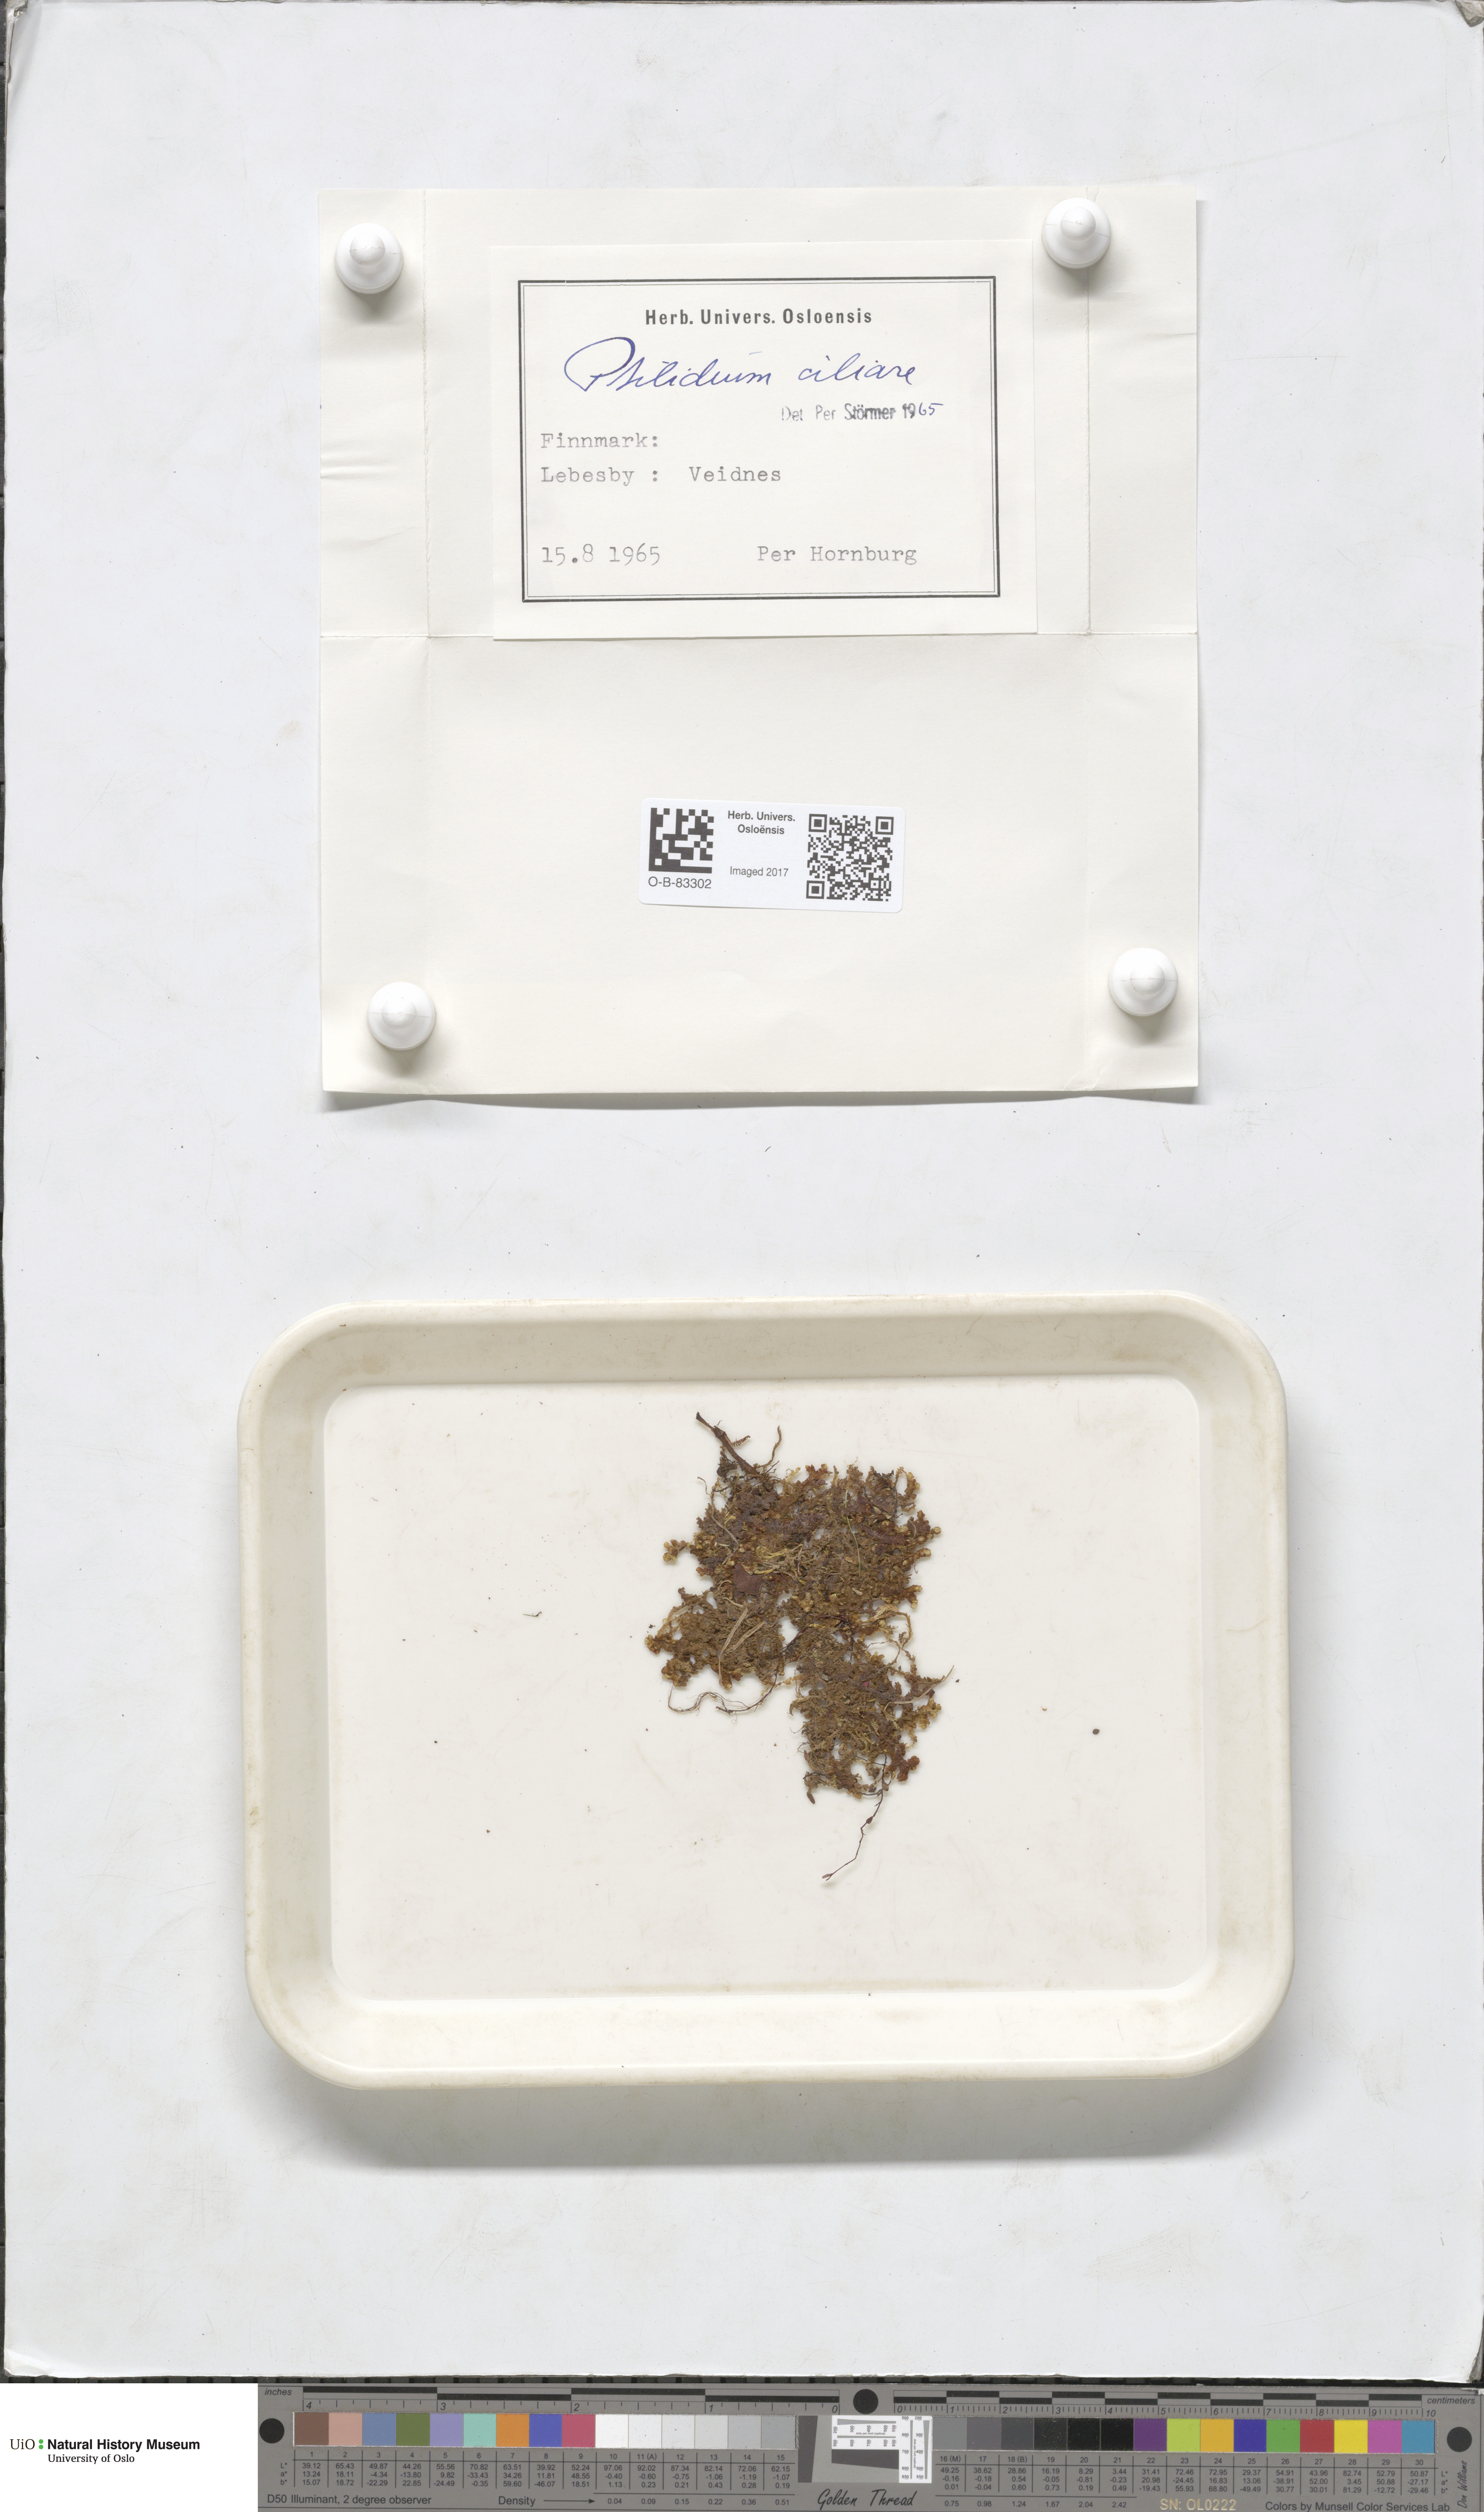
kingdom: Plantae
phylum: Marchantiophyta
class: Jungermanniopsida
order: Ptilidiales
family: Ptilidiaceae
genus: Ptilidium
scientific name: Ptilidium ciliare
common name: Ciliate fringewort
